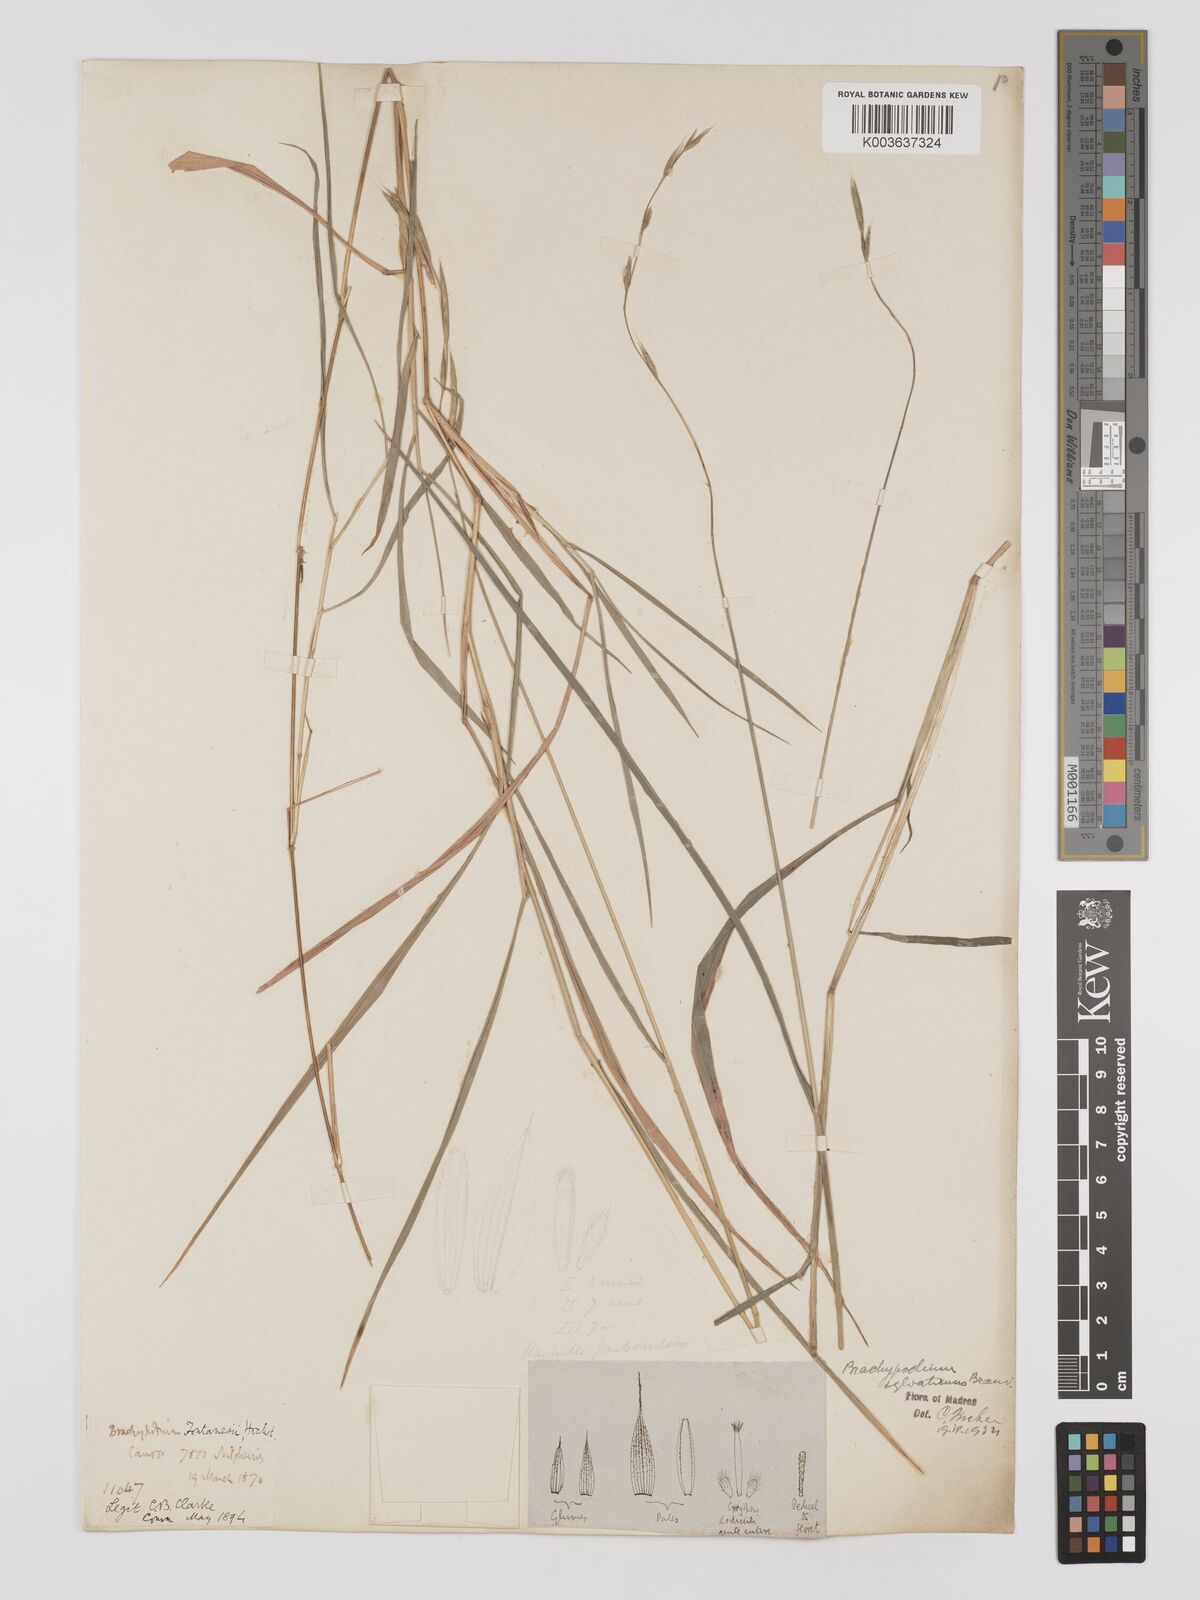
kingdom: Plantae
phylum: Tracheophyta
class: Liliopsida
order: Poales
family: Poaceae
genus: Brachypodium
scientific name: Brachypodium sylvaticum
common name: False-brome
